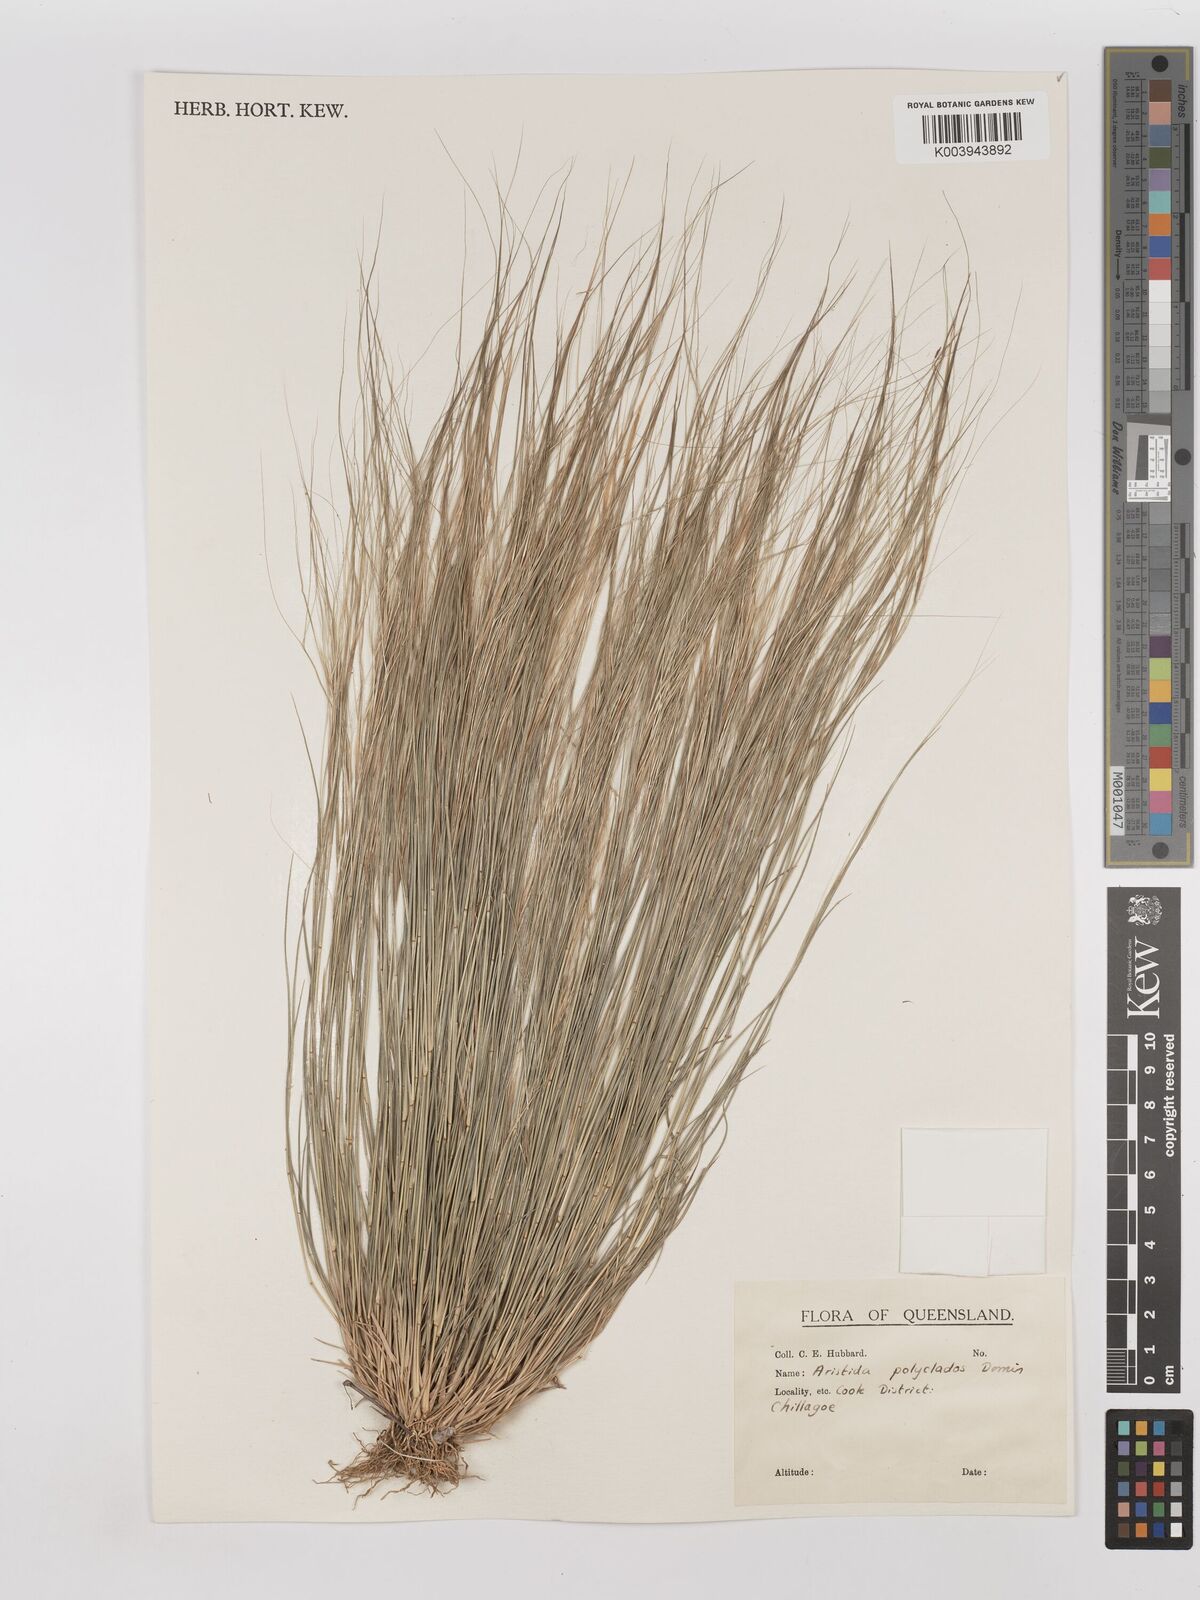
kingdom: Plantae
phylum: Tracheophyta
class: Liliopsida
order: Poales
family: Poaceae
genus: Aristida
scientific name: Aristida polyclados
